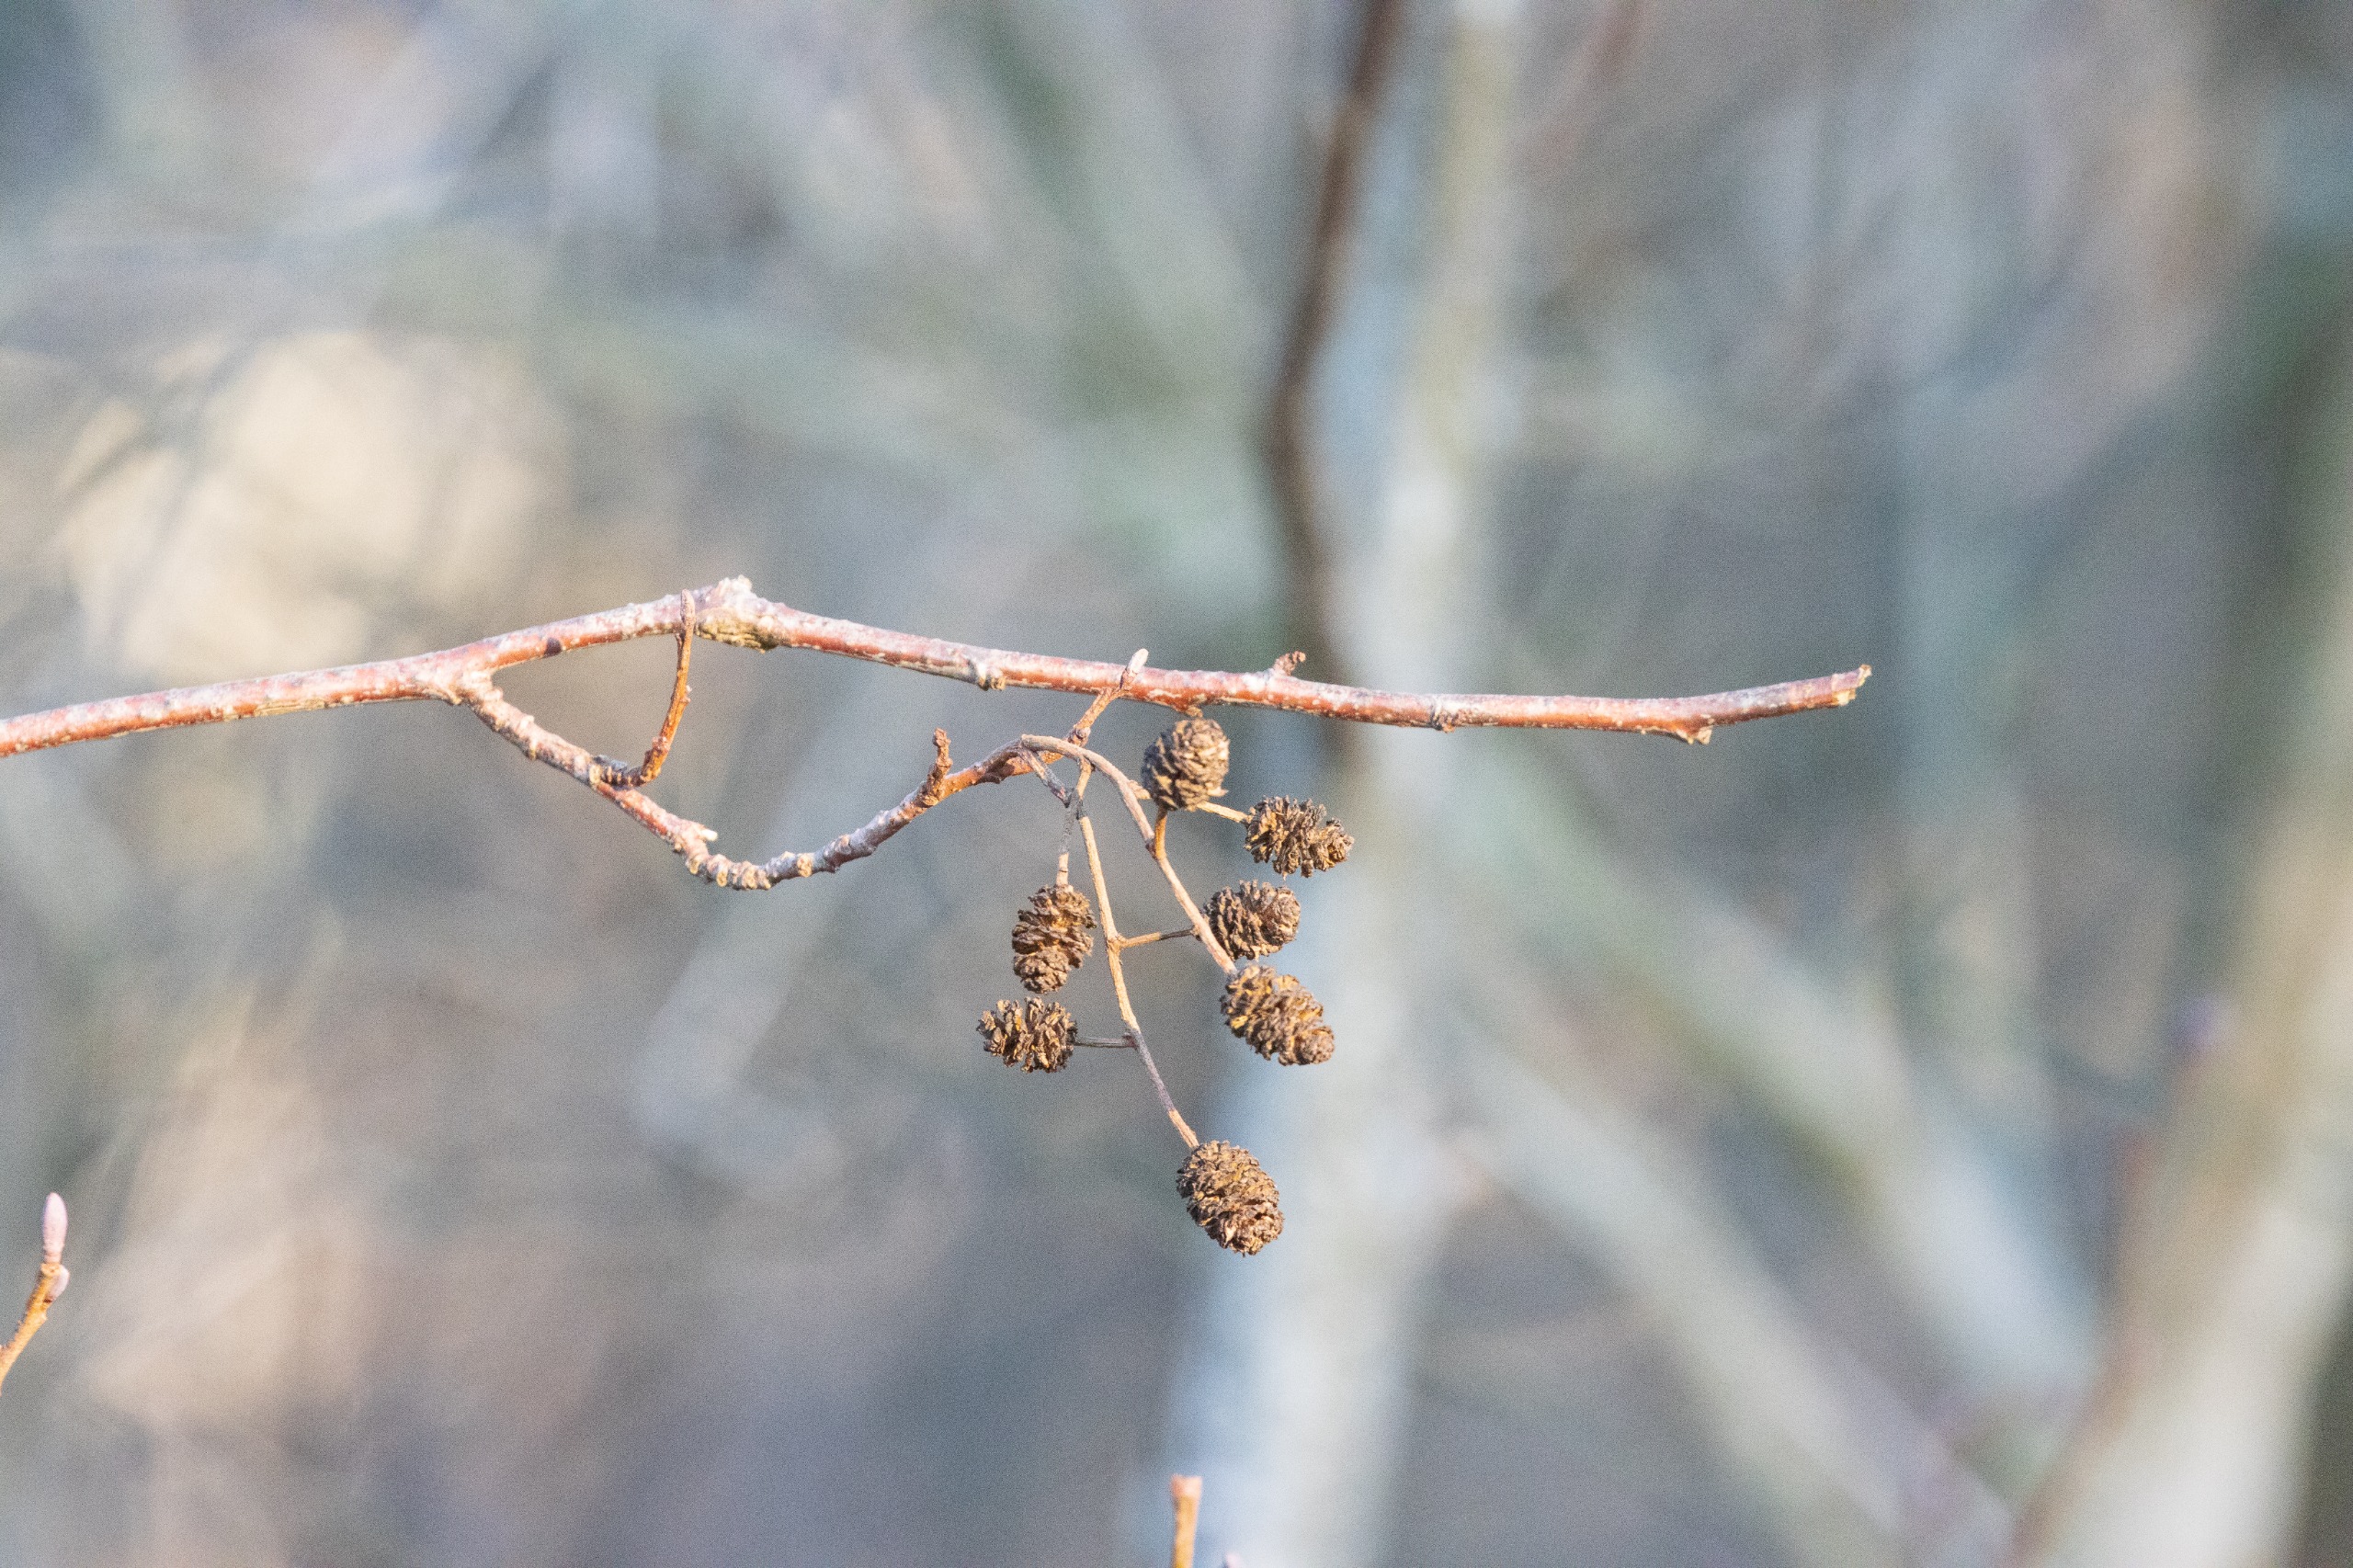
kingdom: Plantae
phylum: Tracheophyta
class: Magnoliopsida
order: Fagales
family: Betulaceae
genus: Alnus
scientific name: Alnus glutinosa
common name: Rød-el
